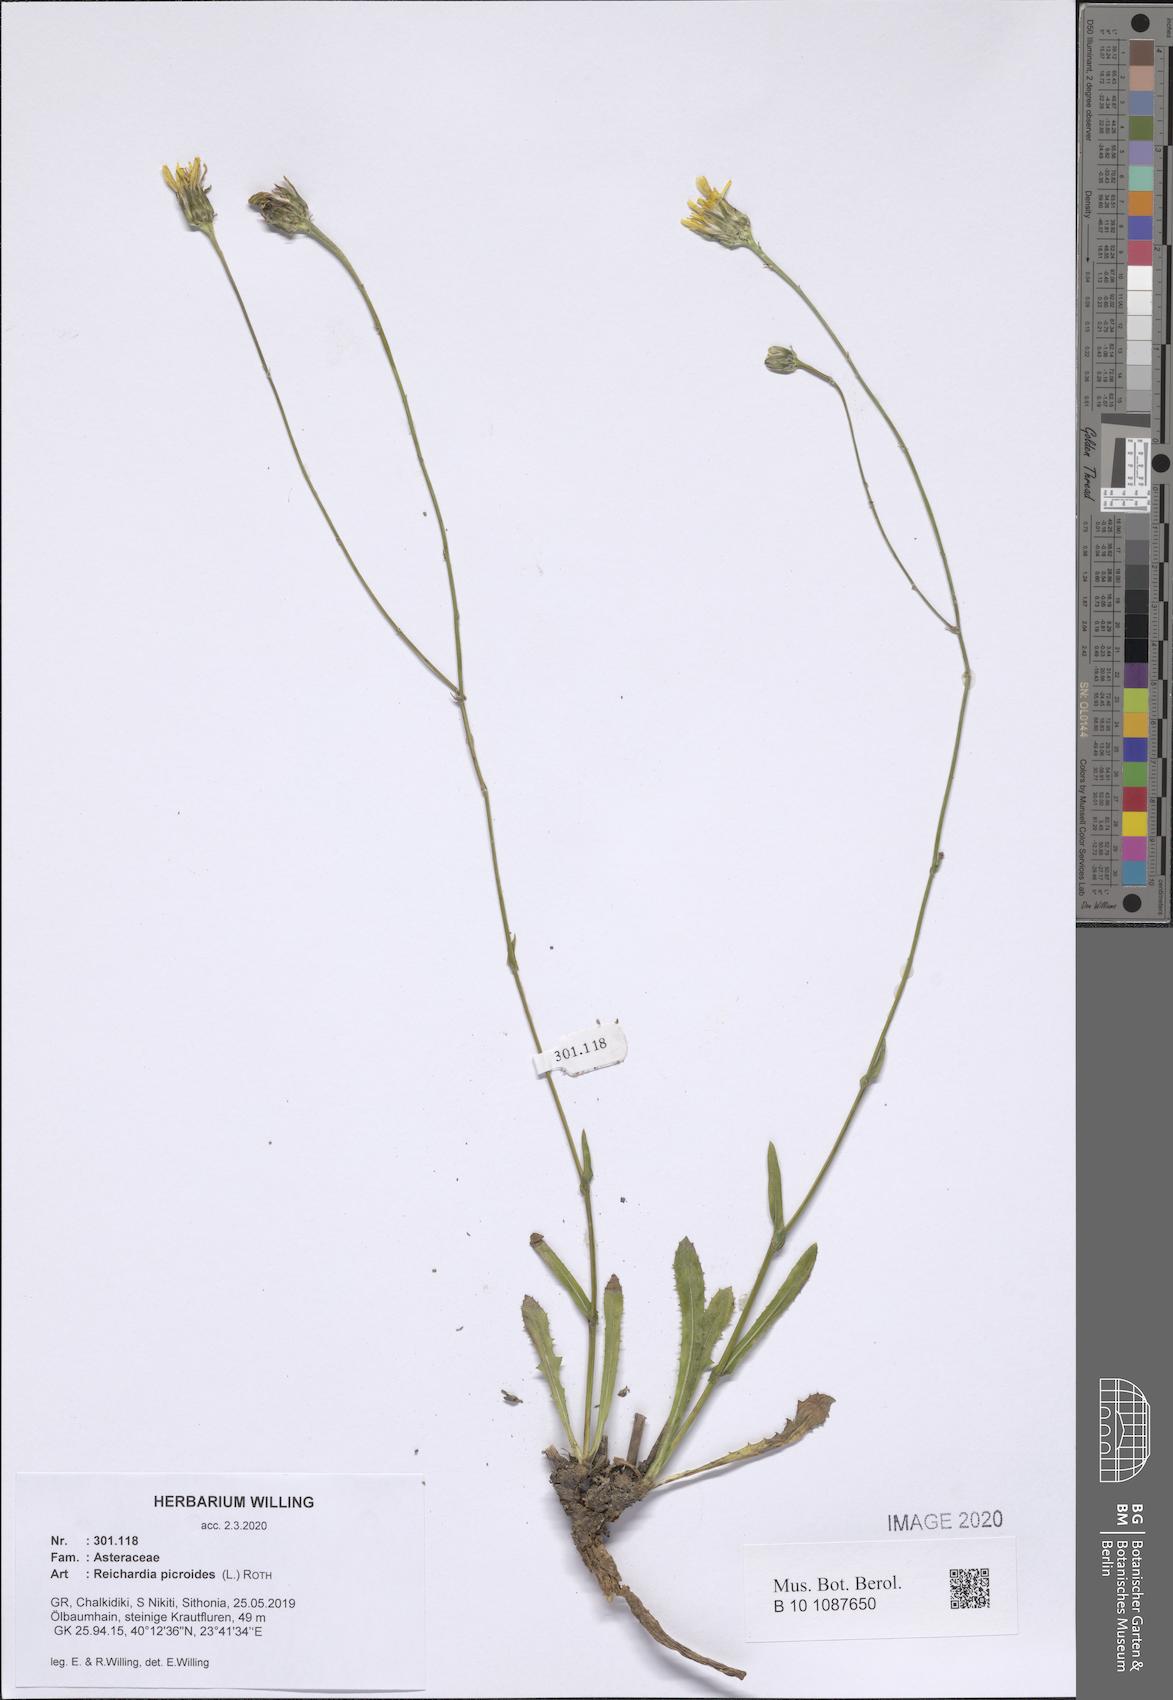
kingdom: Plantae
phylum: Tracheophyta
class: Magnoliopsida
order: Asterales
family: Asteraceae
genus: Reichardia
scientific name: Reichardia picroides
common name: Common brighteyes
